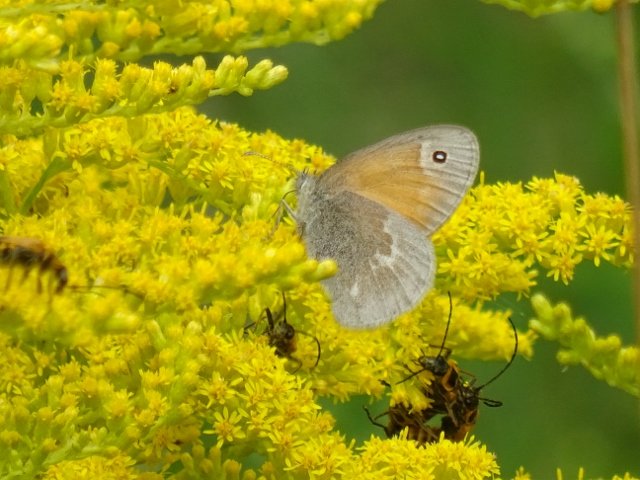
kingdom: Animalia
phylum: Arthropoda
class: Insecta
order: Lepidoptera
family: Nymphalidae
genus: Coenonympha
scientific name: Coenonympha tullia
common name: Large Heath
